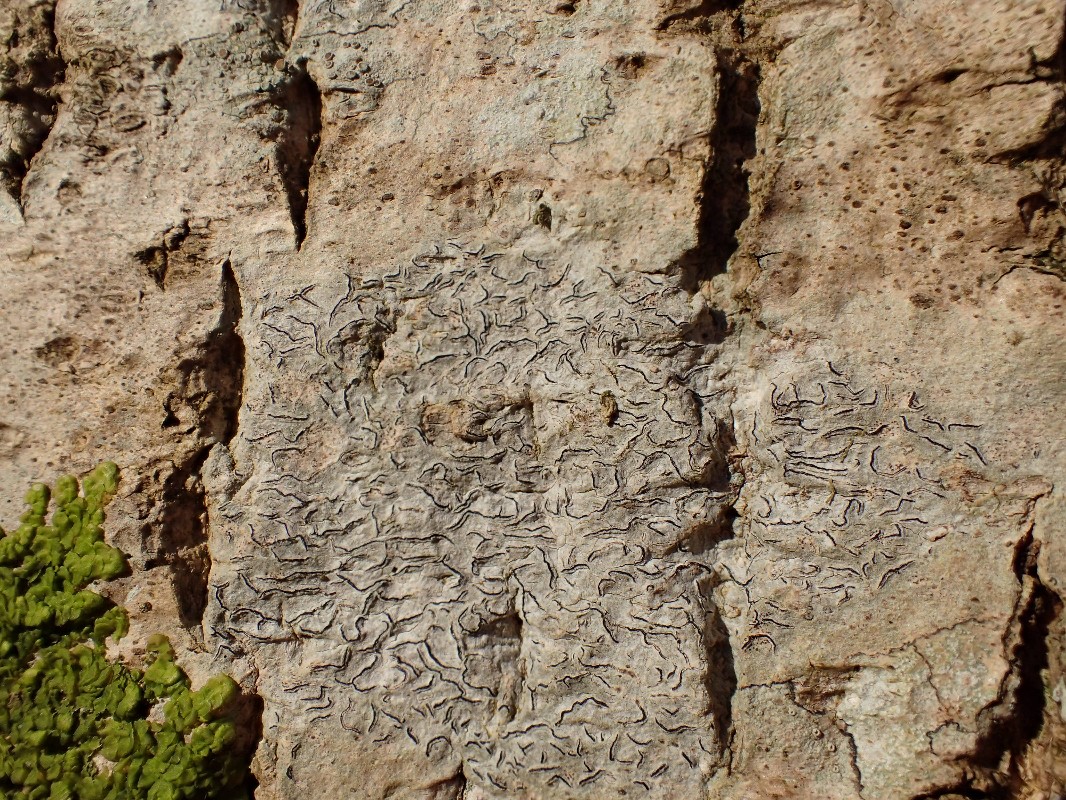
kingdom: Fungi
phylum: Ascomycota
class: Lecanoromycetes
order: Ostropales
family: Graphidaceae
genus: Graphis
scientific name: Graphis scripta
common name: almindelig skriftlav
